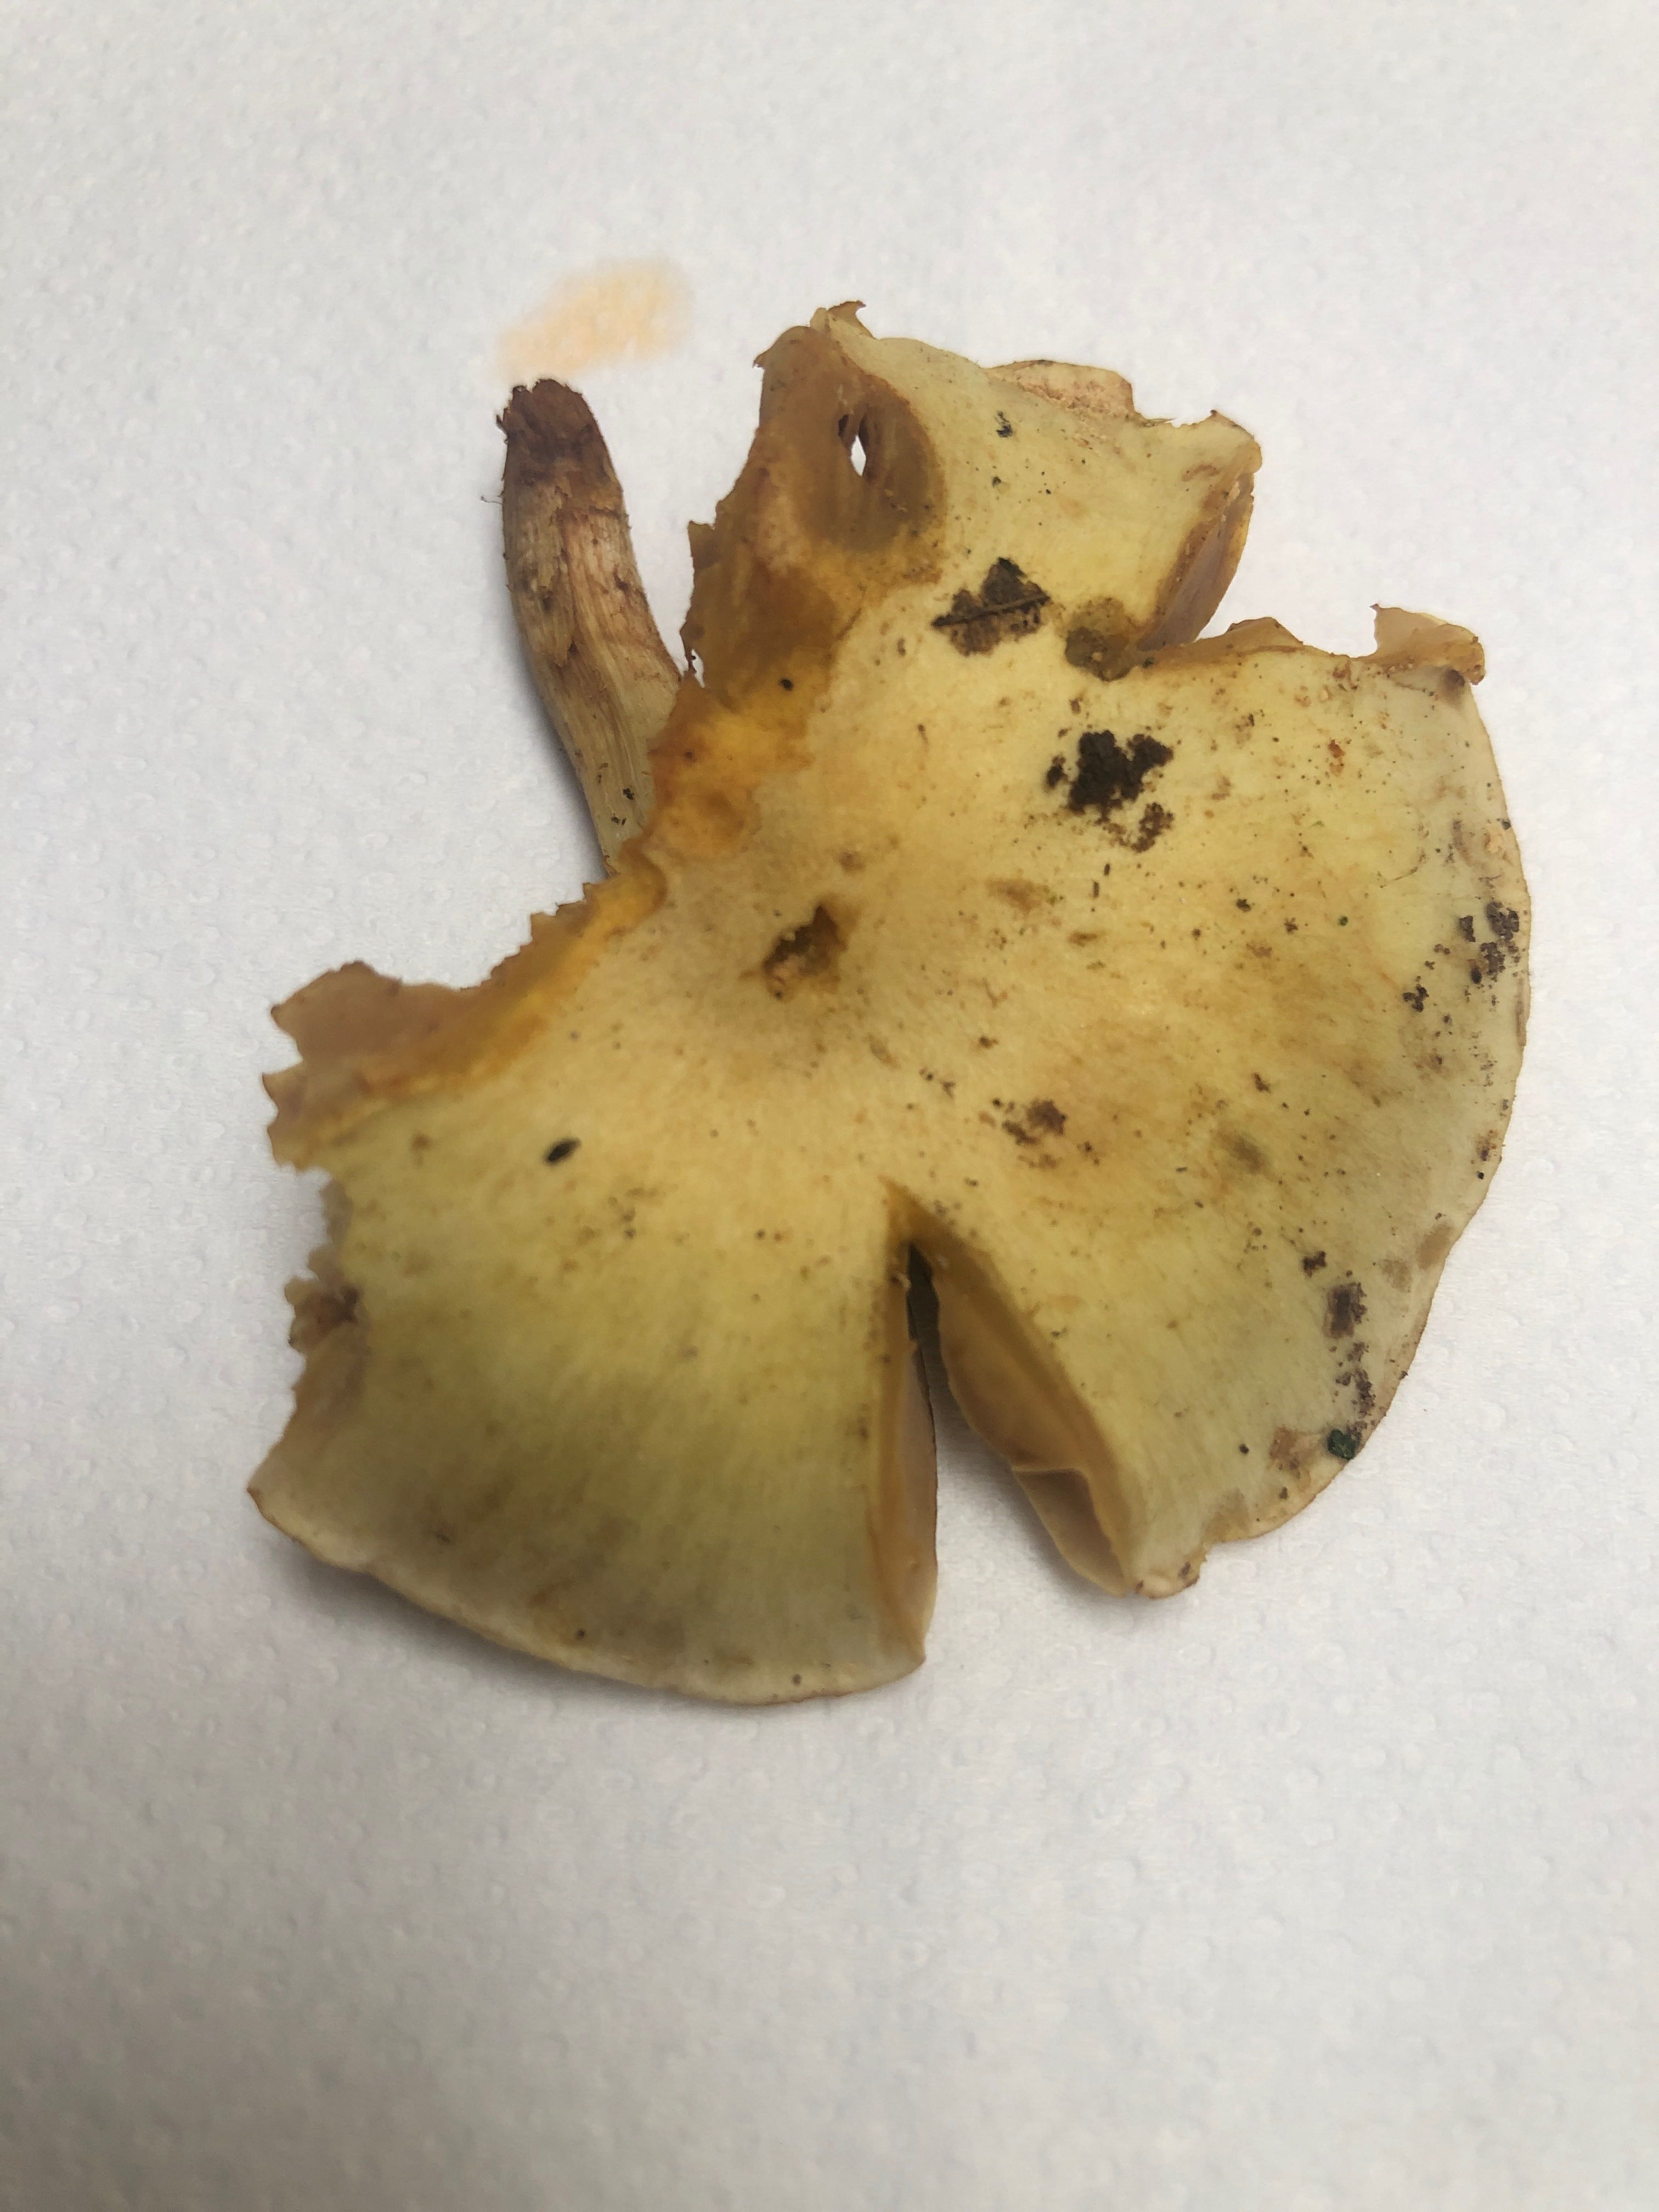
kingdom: Fungi
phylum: Basidiomycota
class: Agaricomycetes
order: Agaricales
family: Strophariaceae
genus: Pholiota
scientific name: Pholiota gummosa
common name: grøngul skælhat
